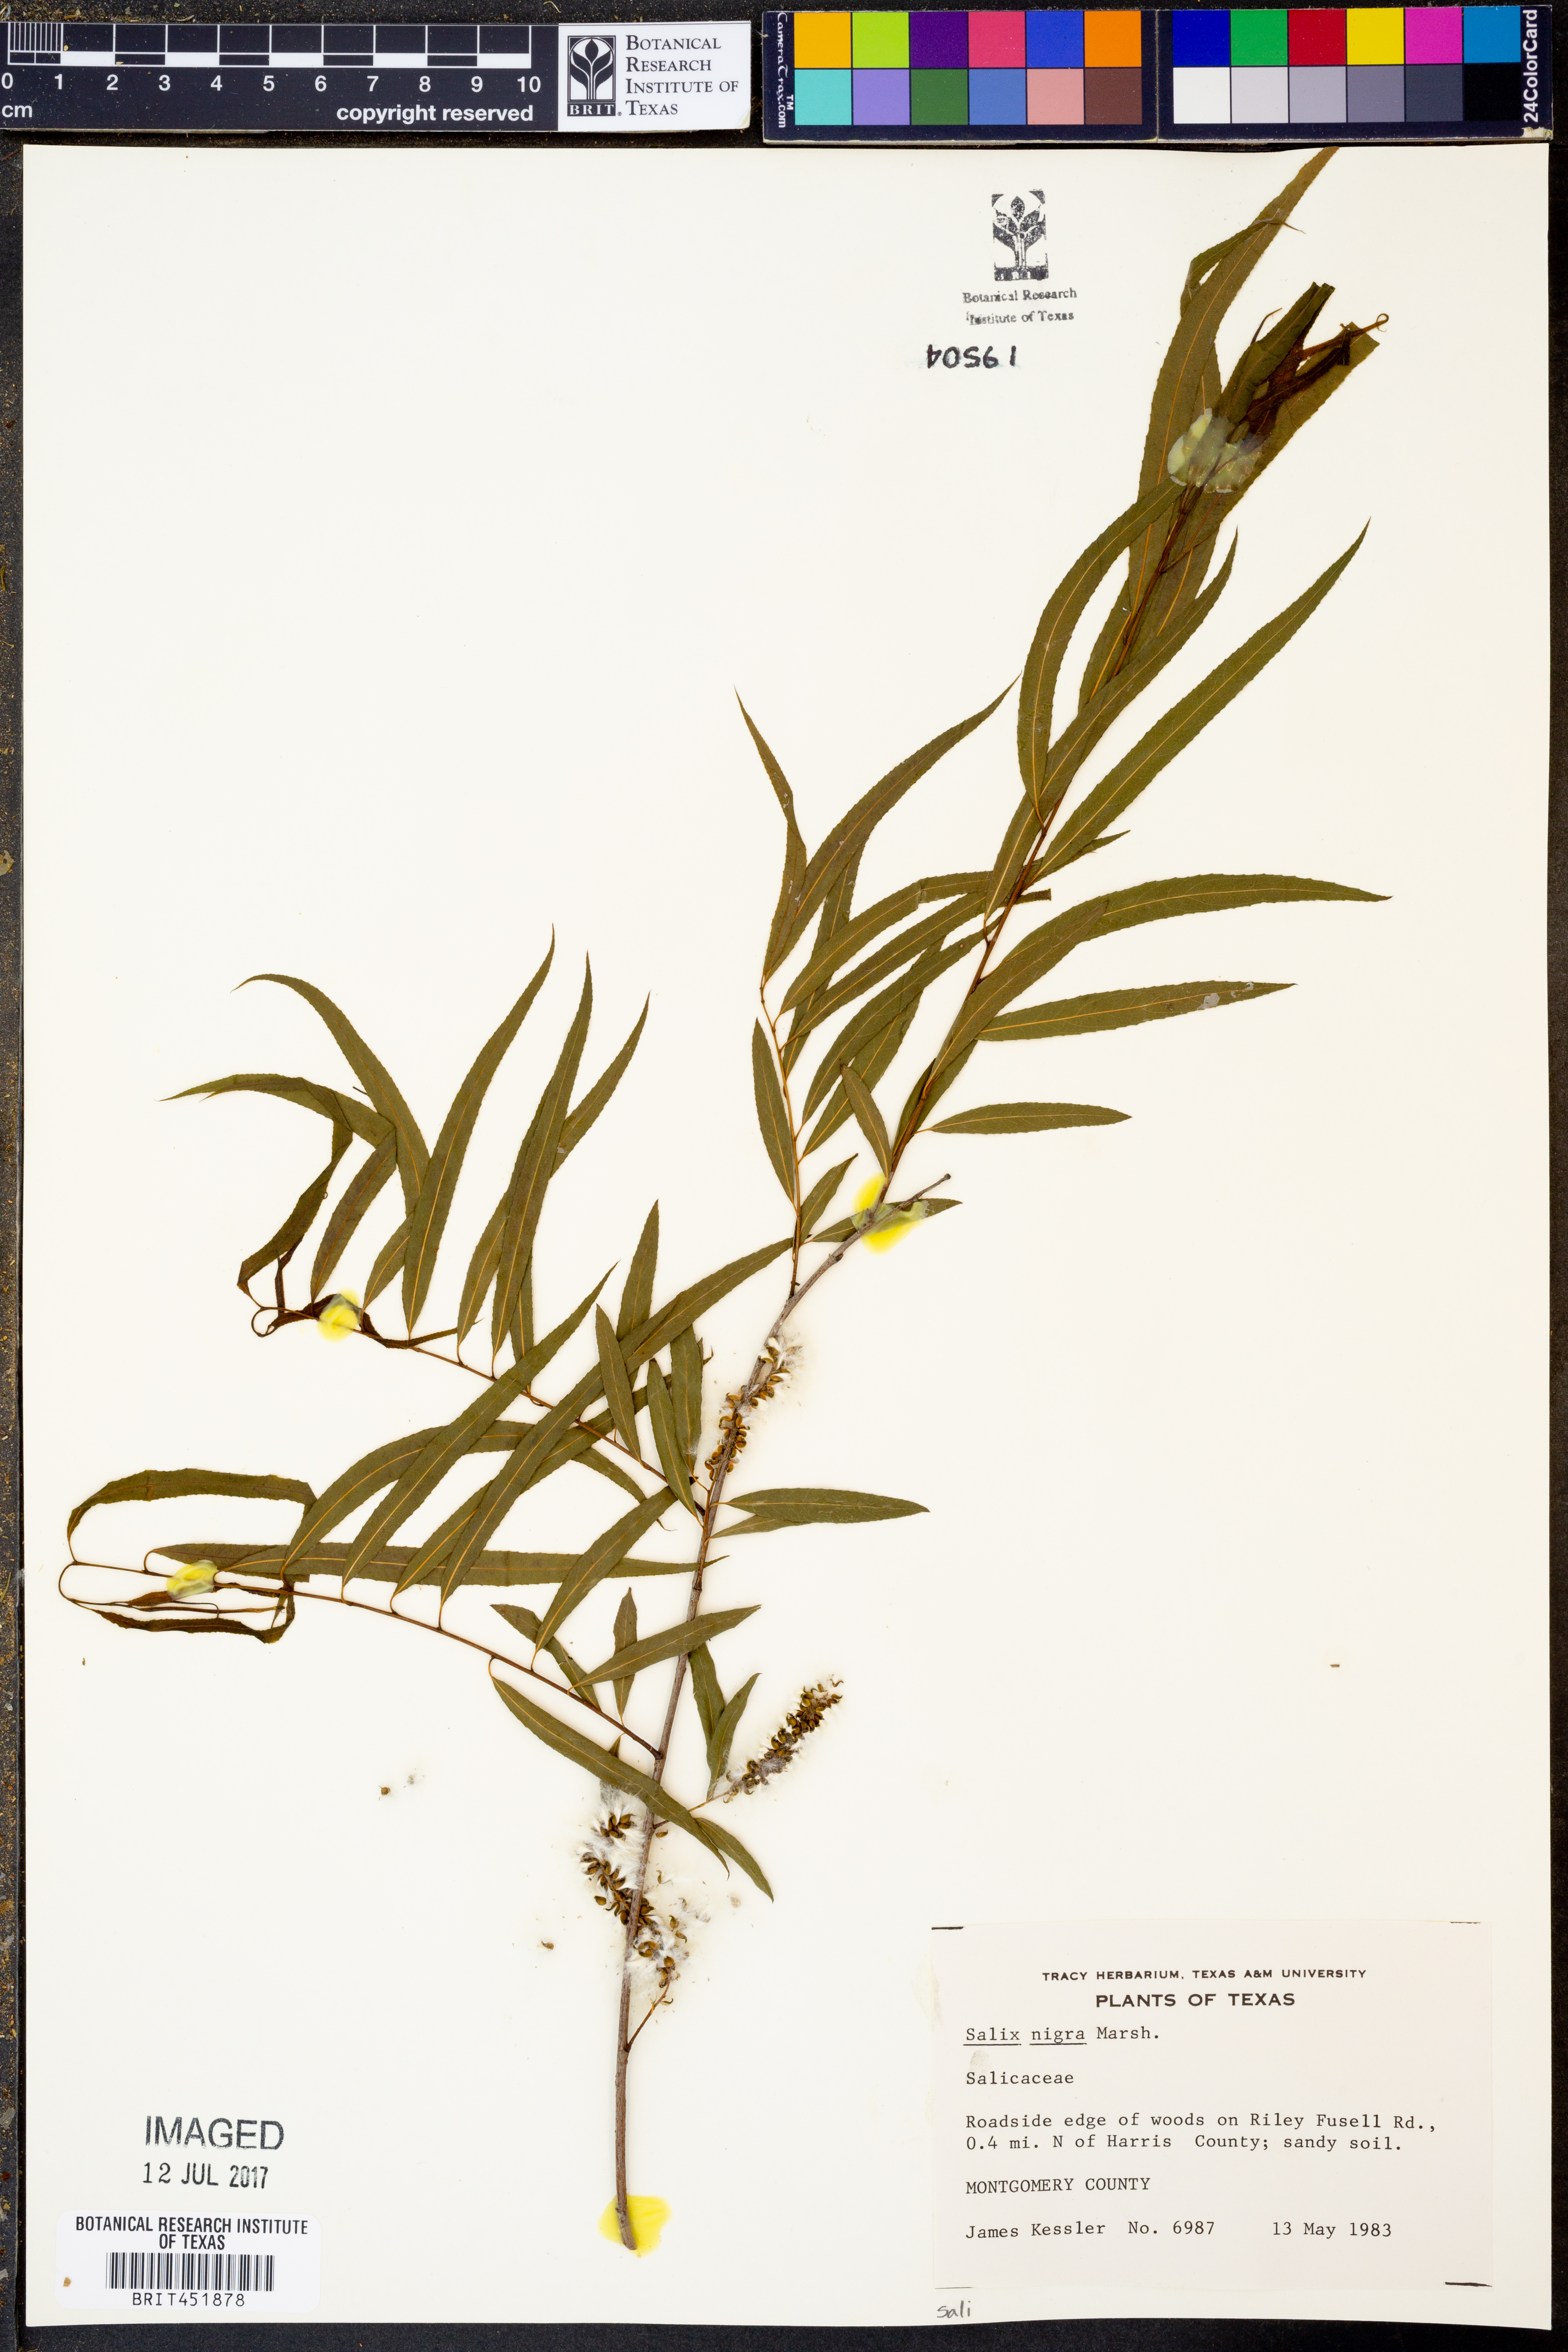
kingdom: Plantae
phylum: Tracheophyta
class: Magnoliopsida
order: Malpighiales
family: Salicaceae
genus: Salix
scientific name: Salix nigra
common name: Black willow
